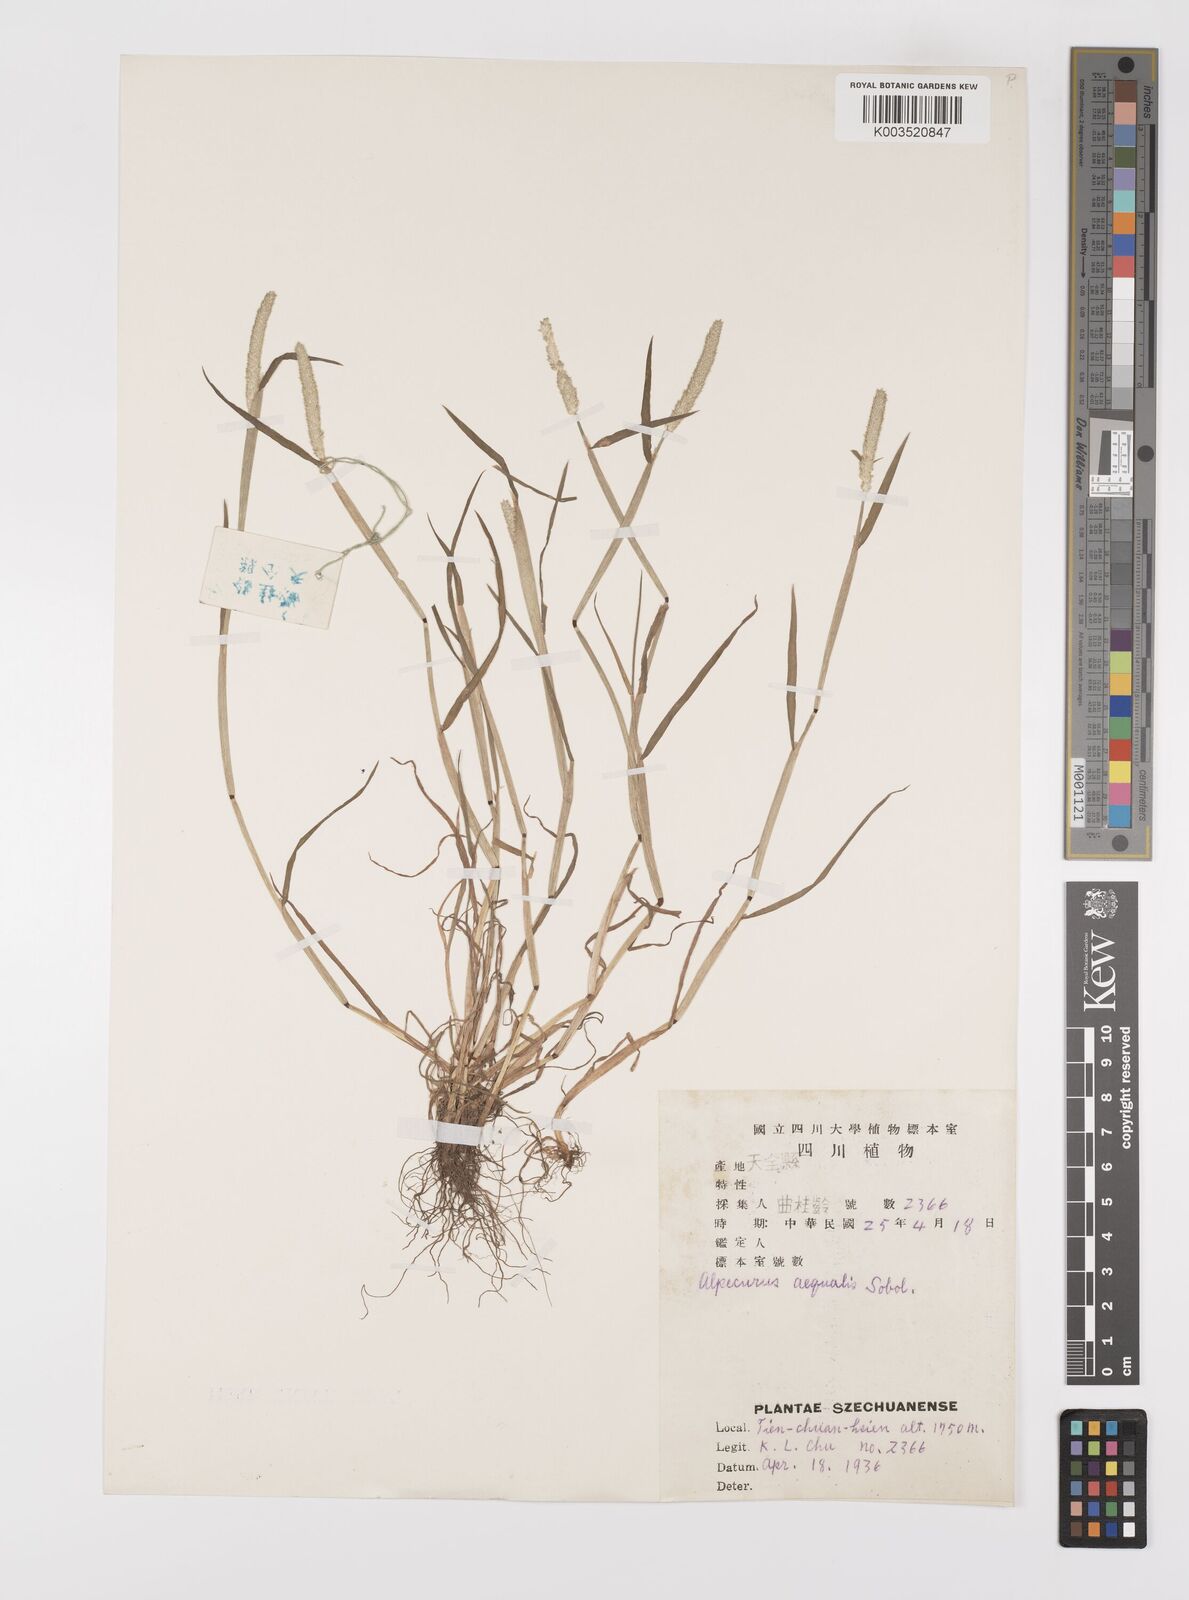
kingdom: Plantae
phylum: Tracheophyta
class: Liliopsida
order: Poales
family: Poaceae
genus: Alopecurus
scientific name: Alopecurus aequalis
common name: Orange foxtail
